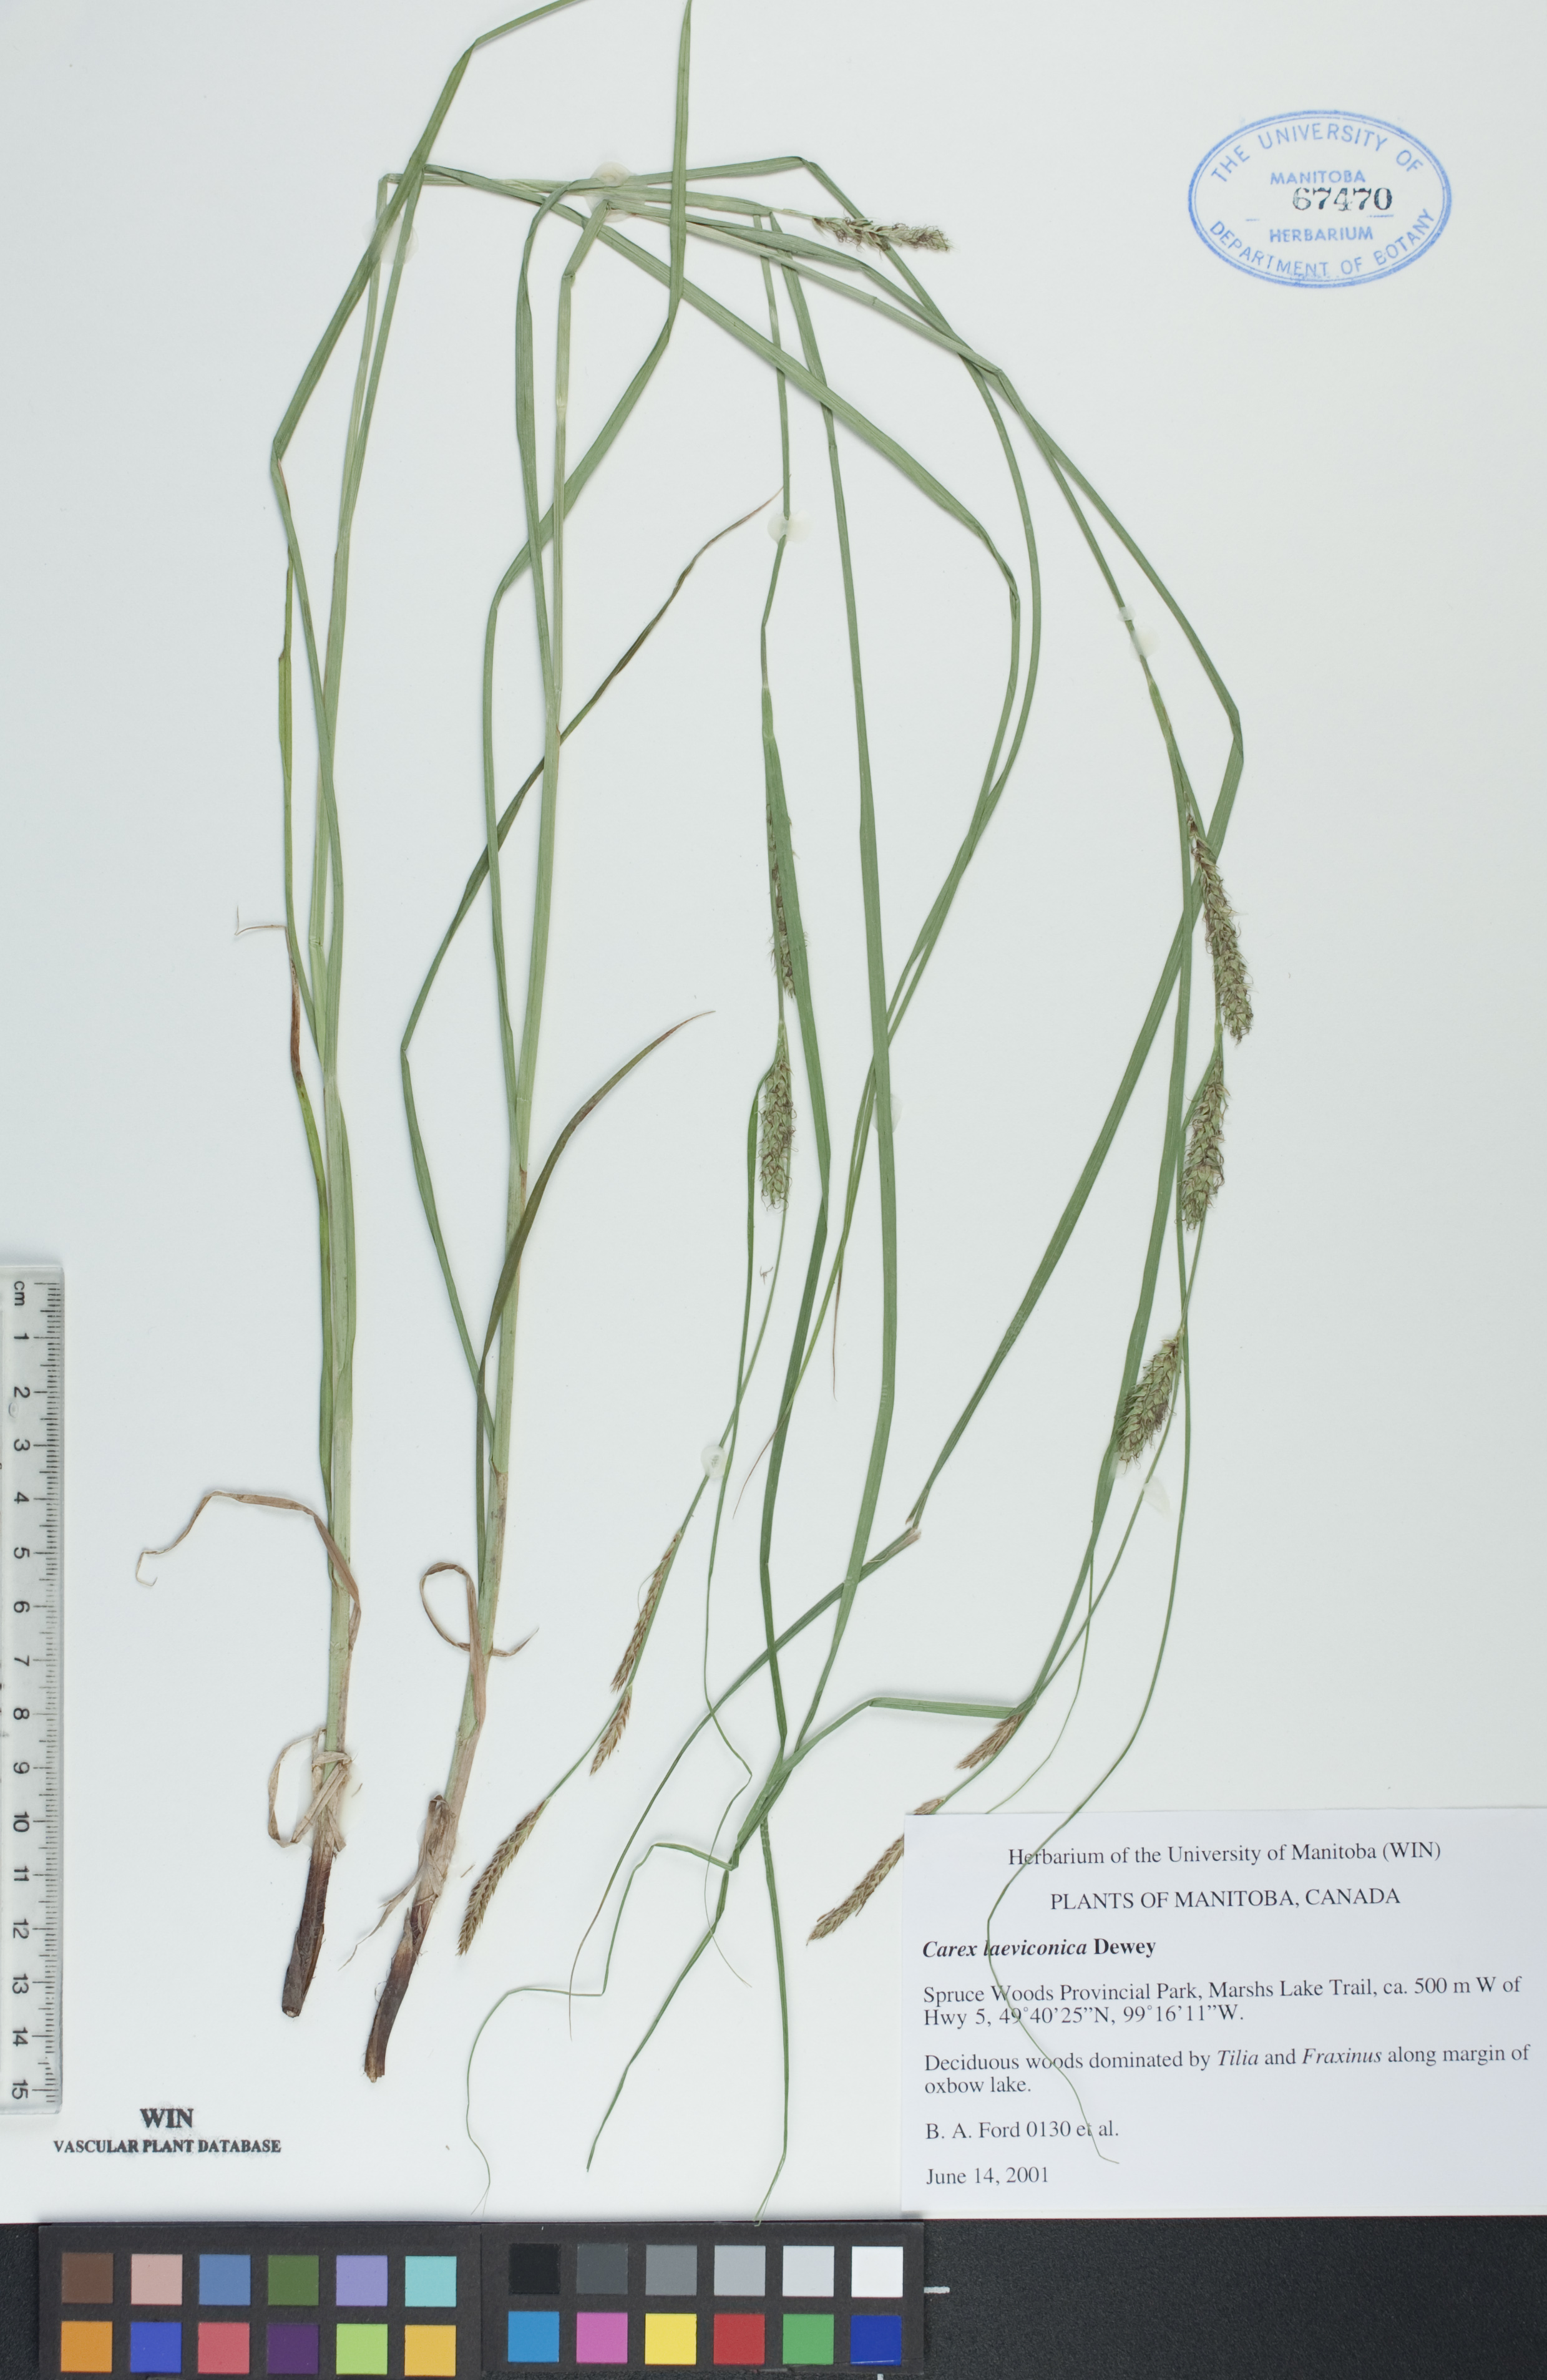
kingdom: Plantae
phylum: Tracheophyta
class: Liliopsida
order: Poales
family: Cyperaceae
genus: Carex
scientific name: Carex laeviconica
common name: Plains slough sedge
